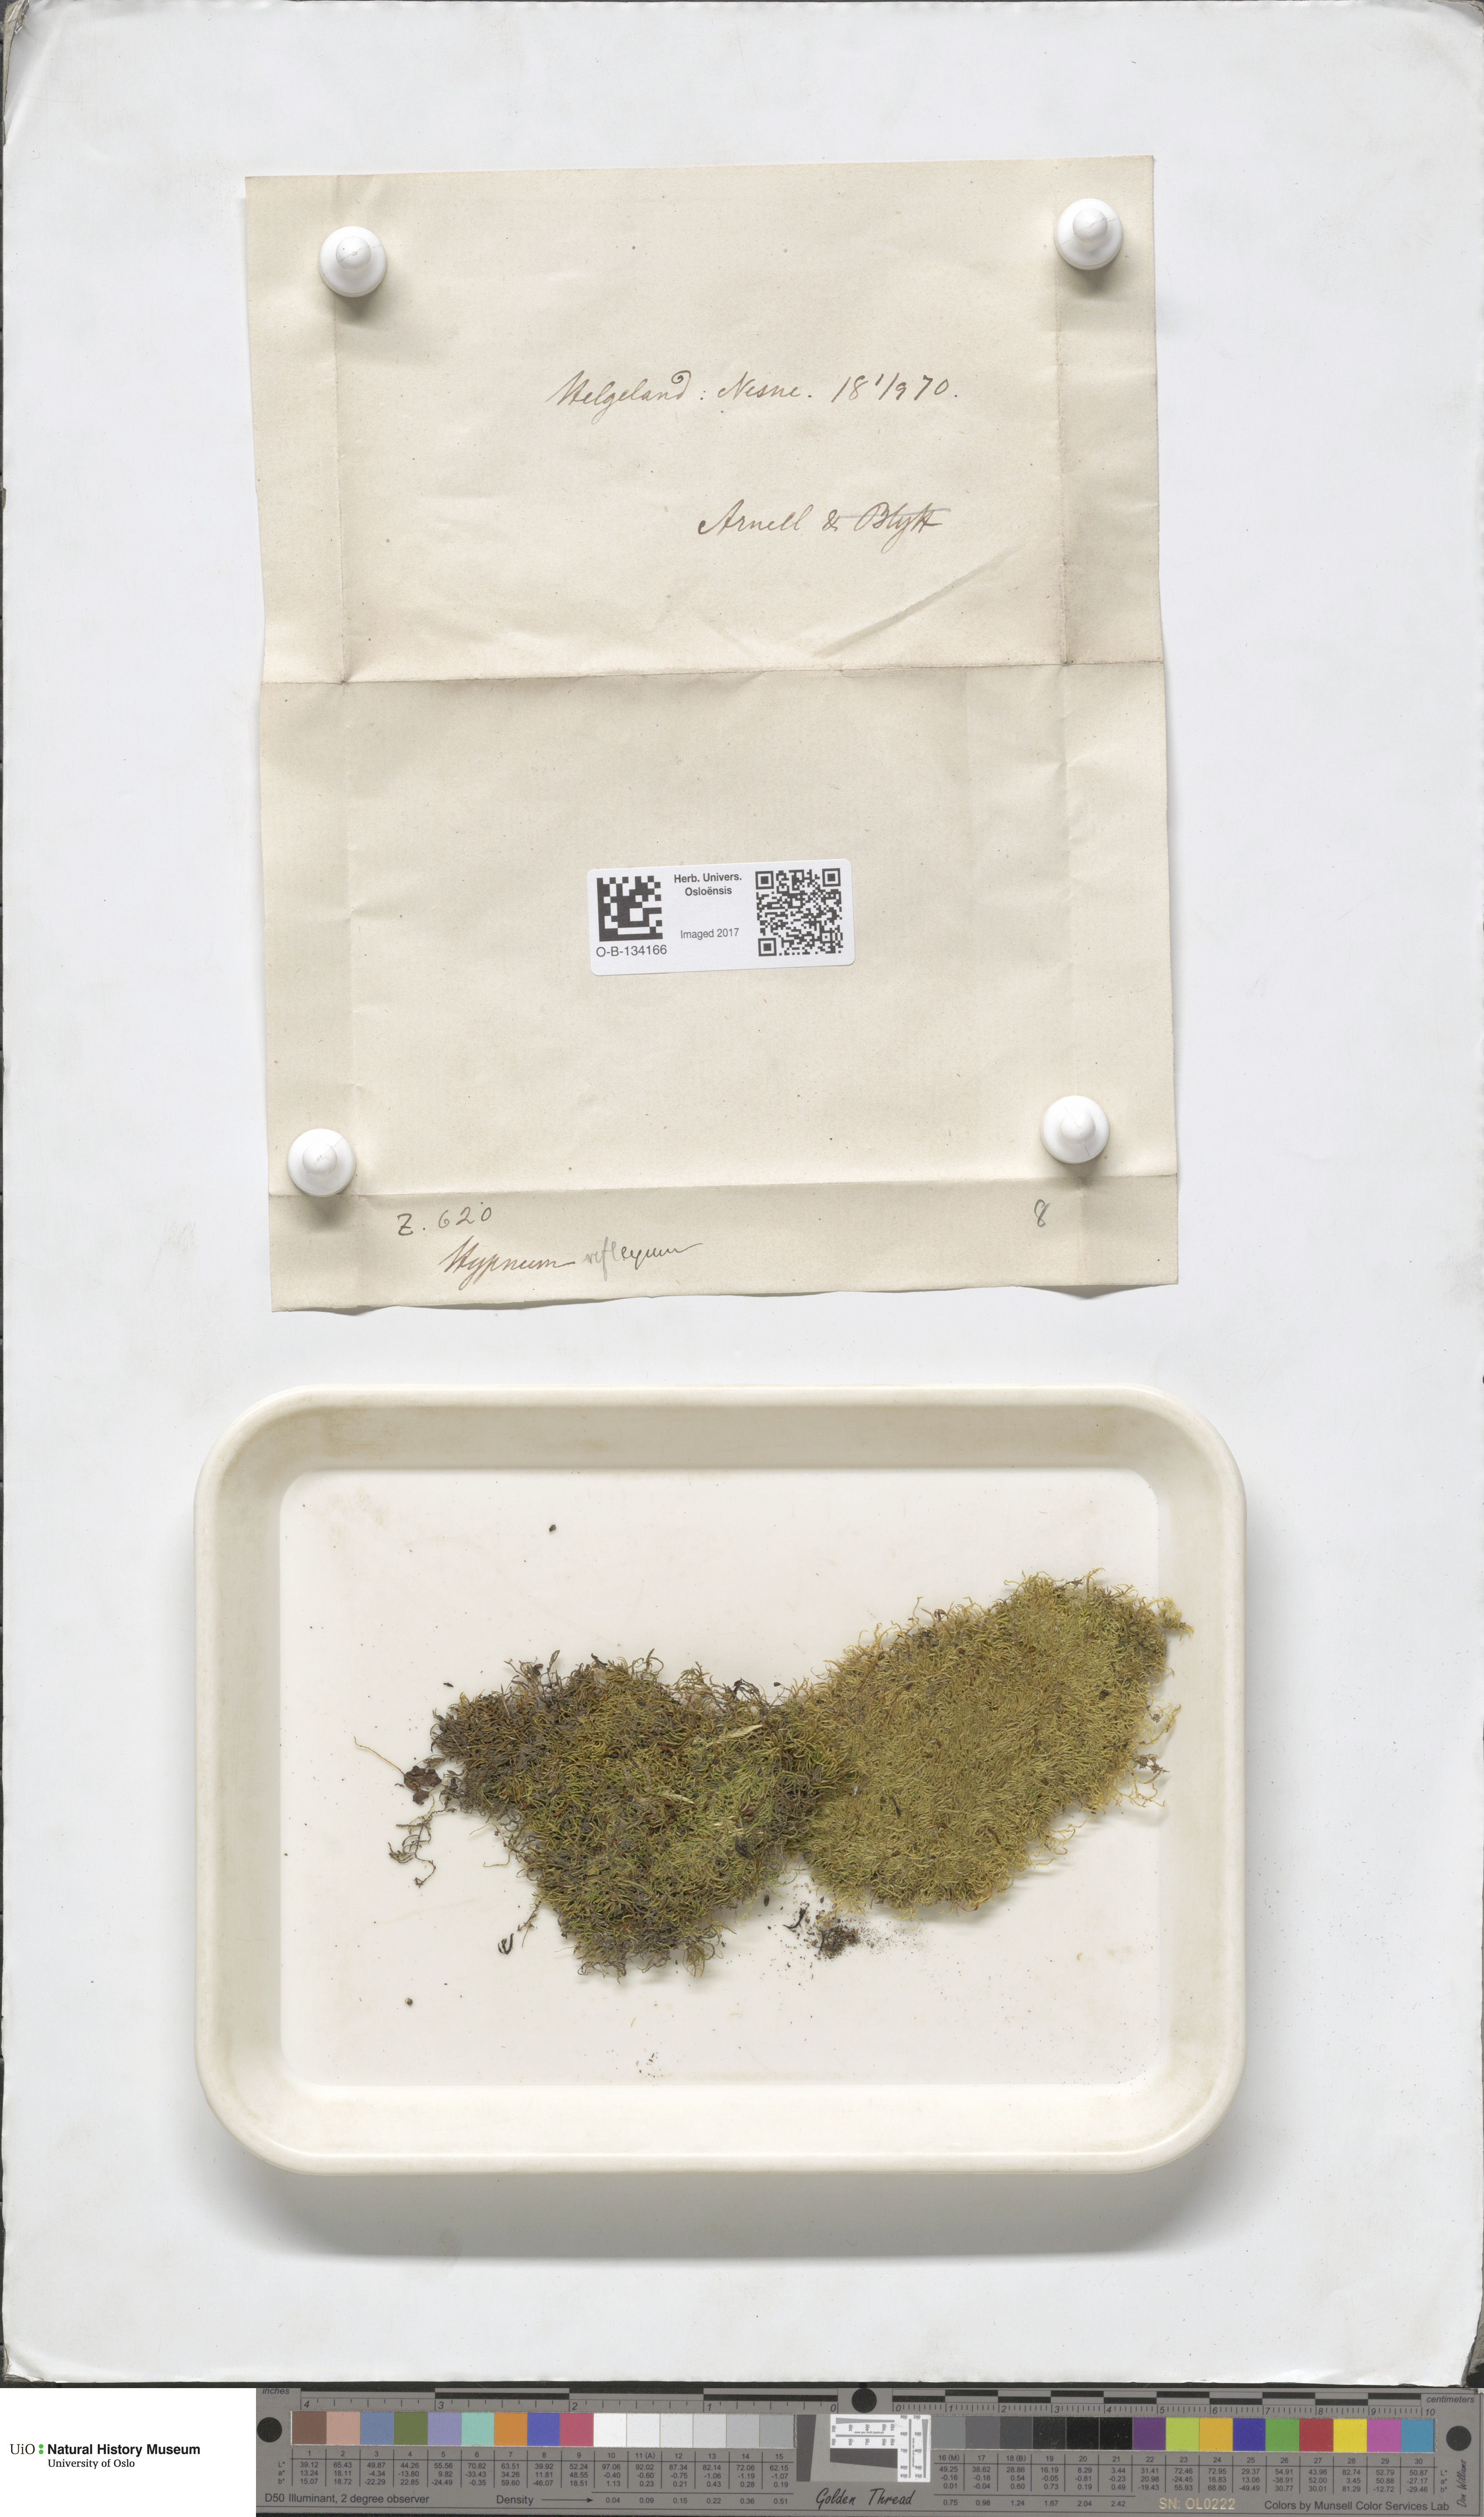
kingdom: Plantae
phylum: Bryophyta
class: Bryopsida
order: Hypnales
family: Brachytheciaceae
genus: Sciuro-hypnum
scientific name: Sciuro-hypnum reflexum
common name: Reflexed feather-moss
